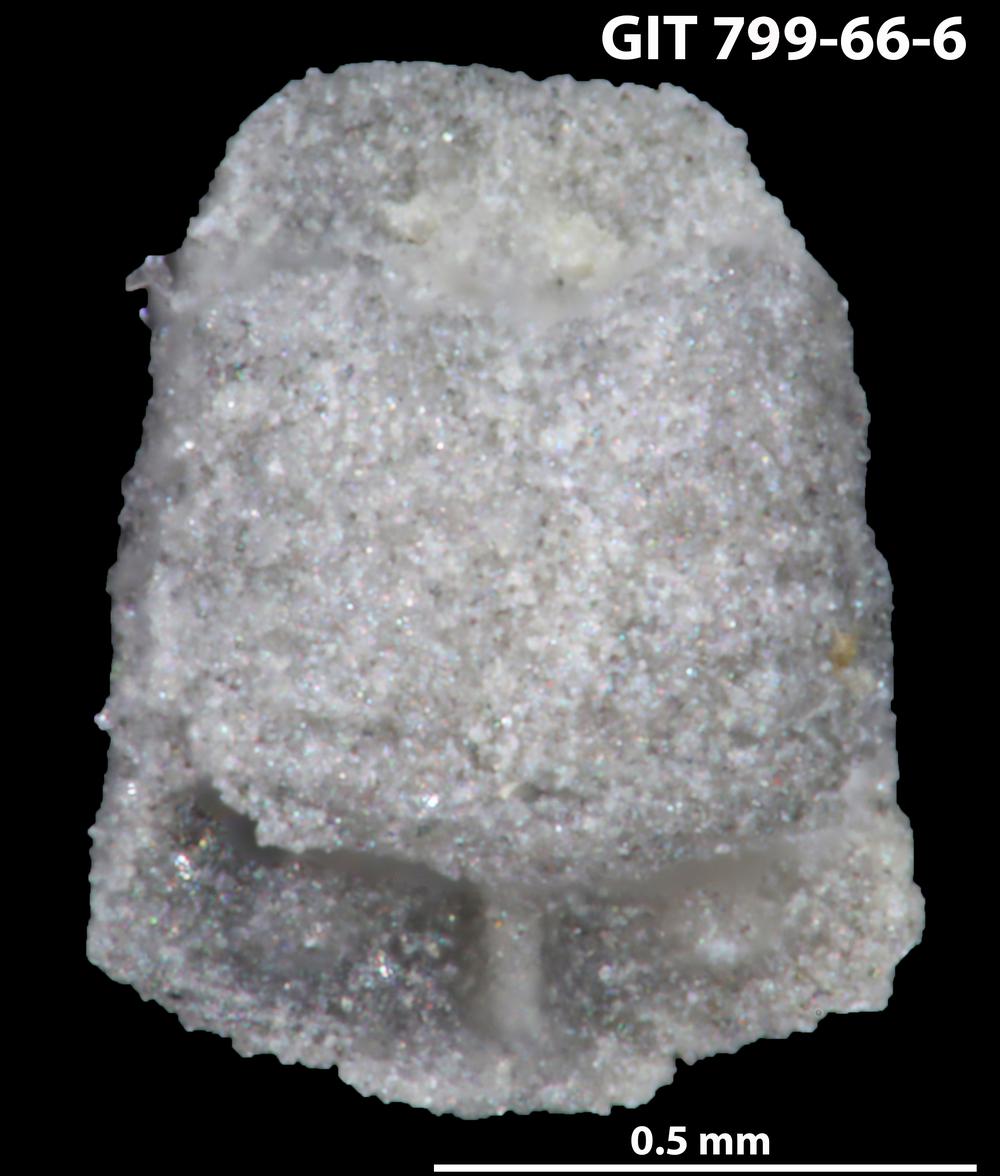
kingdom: Animalia
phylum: Echinodermata
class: Crinoidea
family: Cyclocystoididae
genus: Polytryphocycloides
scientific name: Polytryphocycloides
